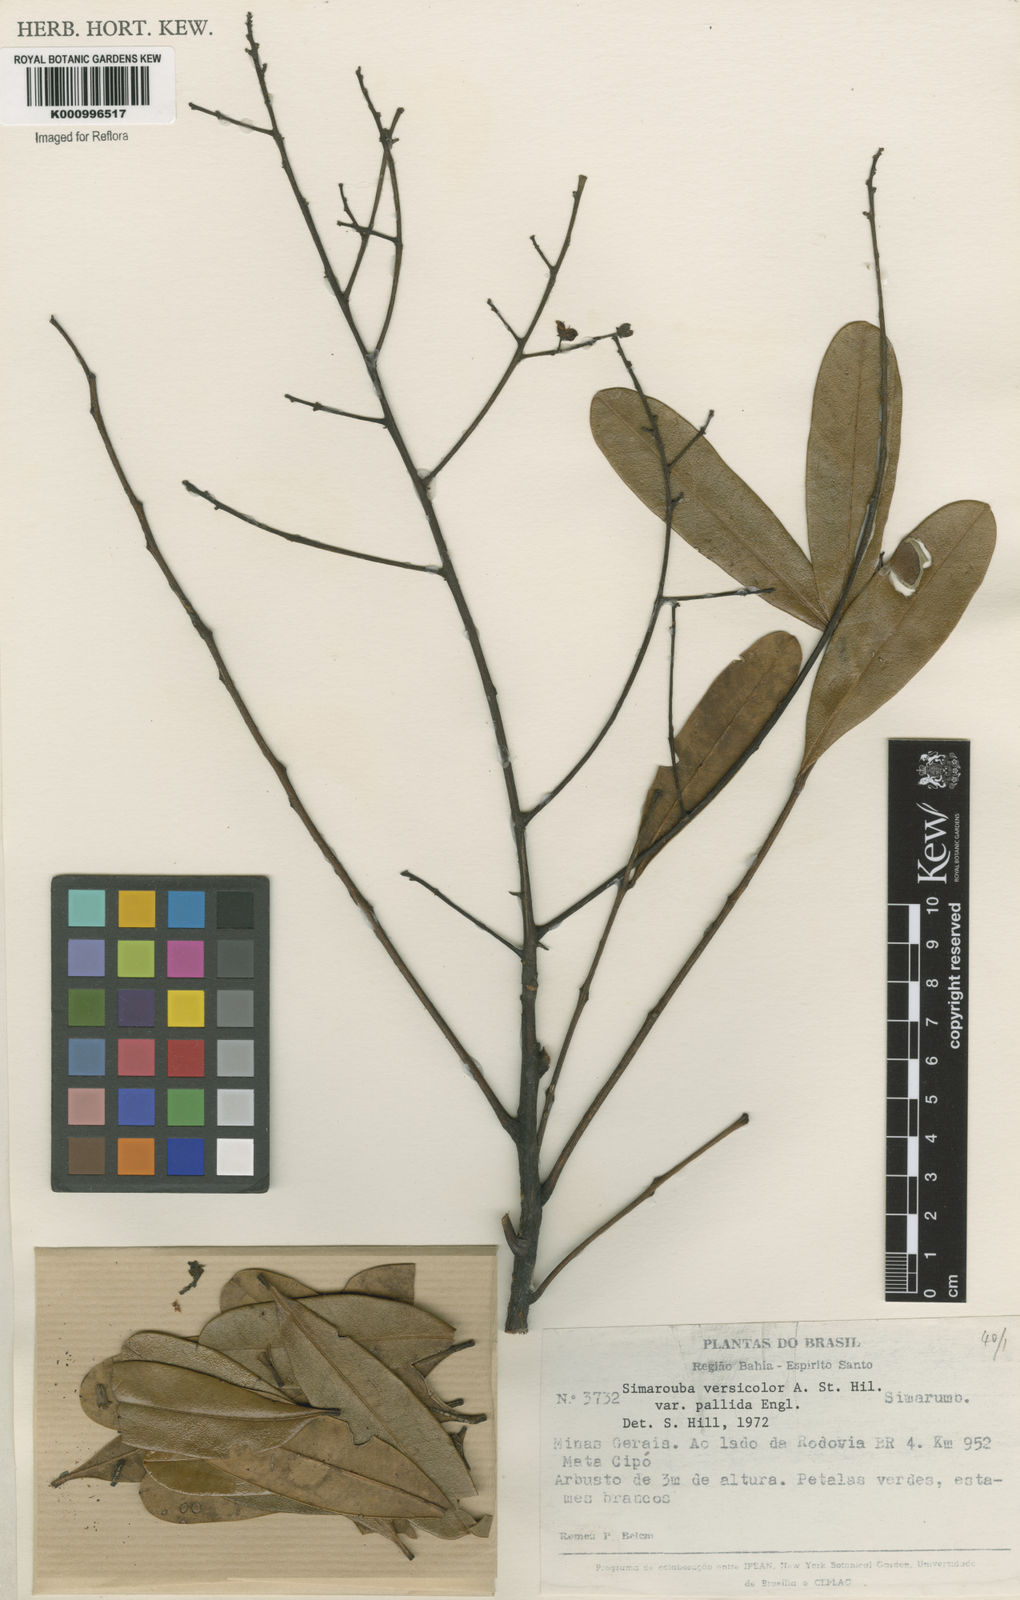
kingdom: Plantae
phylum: Tracheophyta
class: Magnoliopsida
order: Sapindales
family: Simaroubaceae
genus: Simarouba
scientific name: Simarouba versicolor
